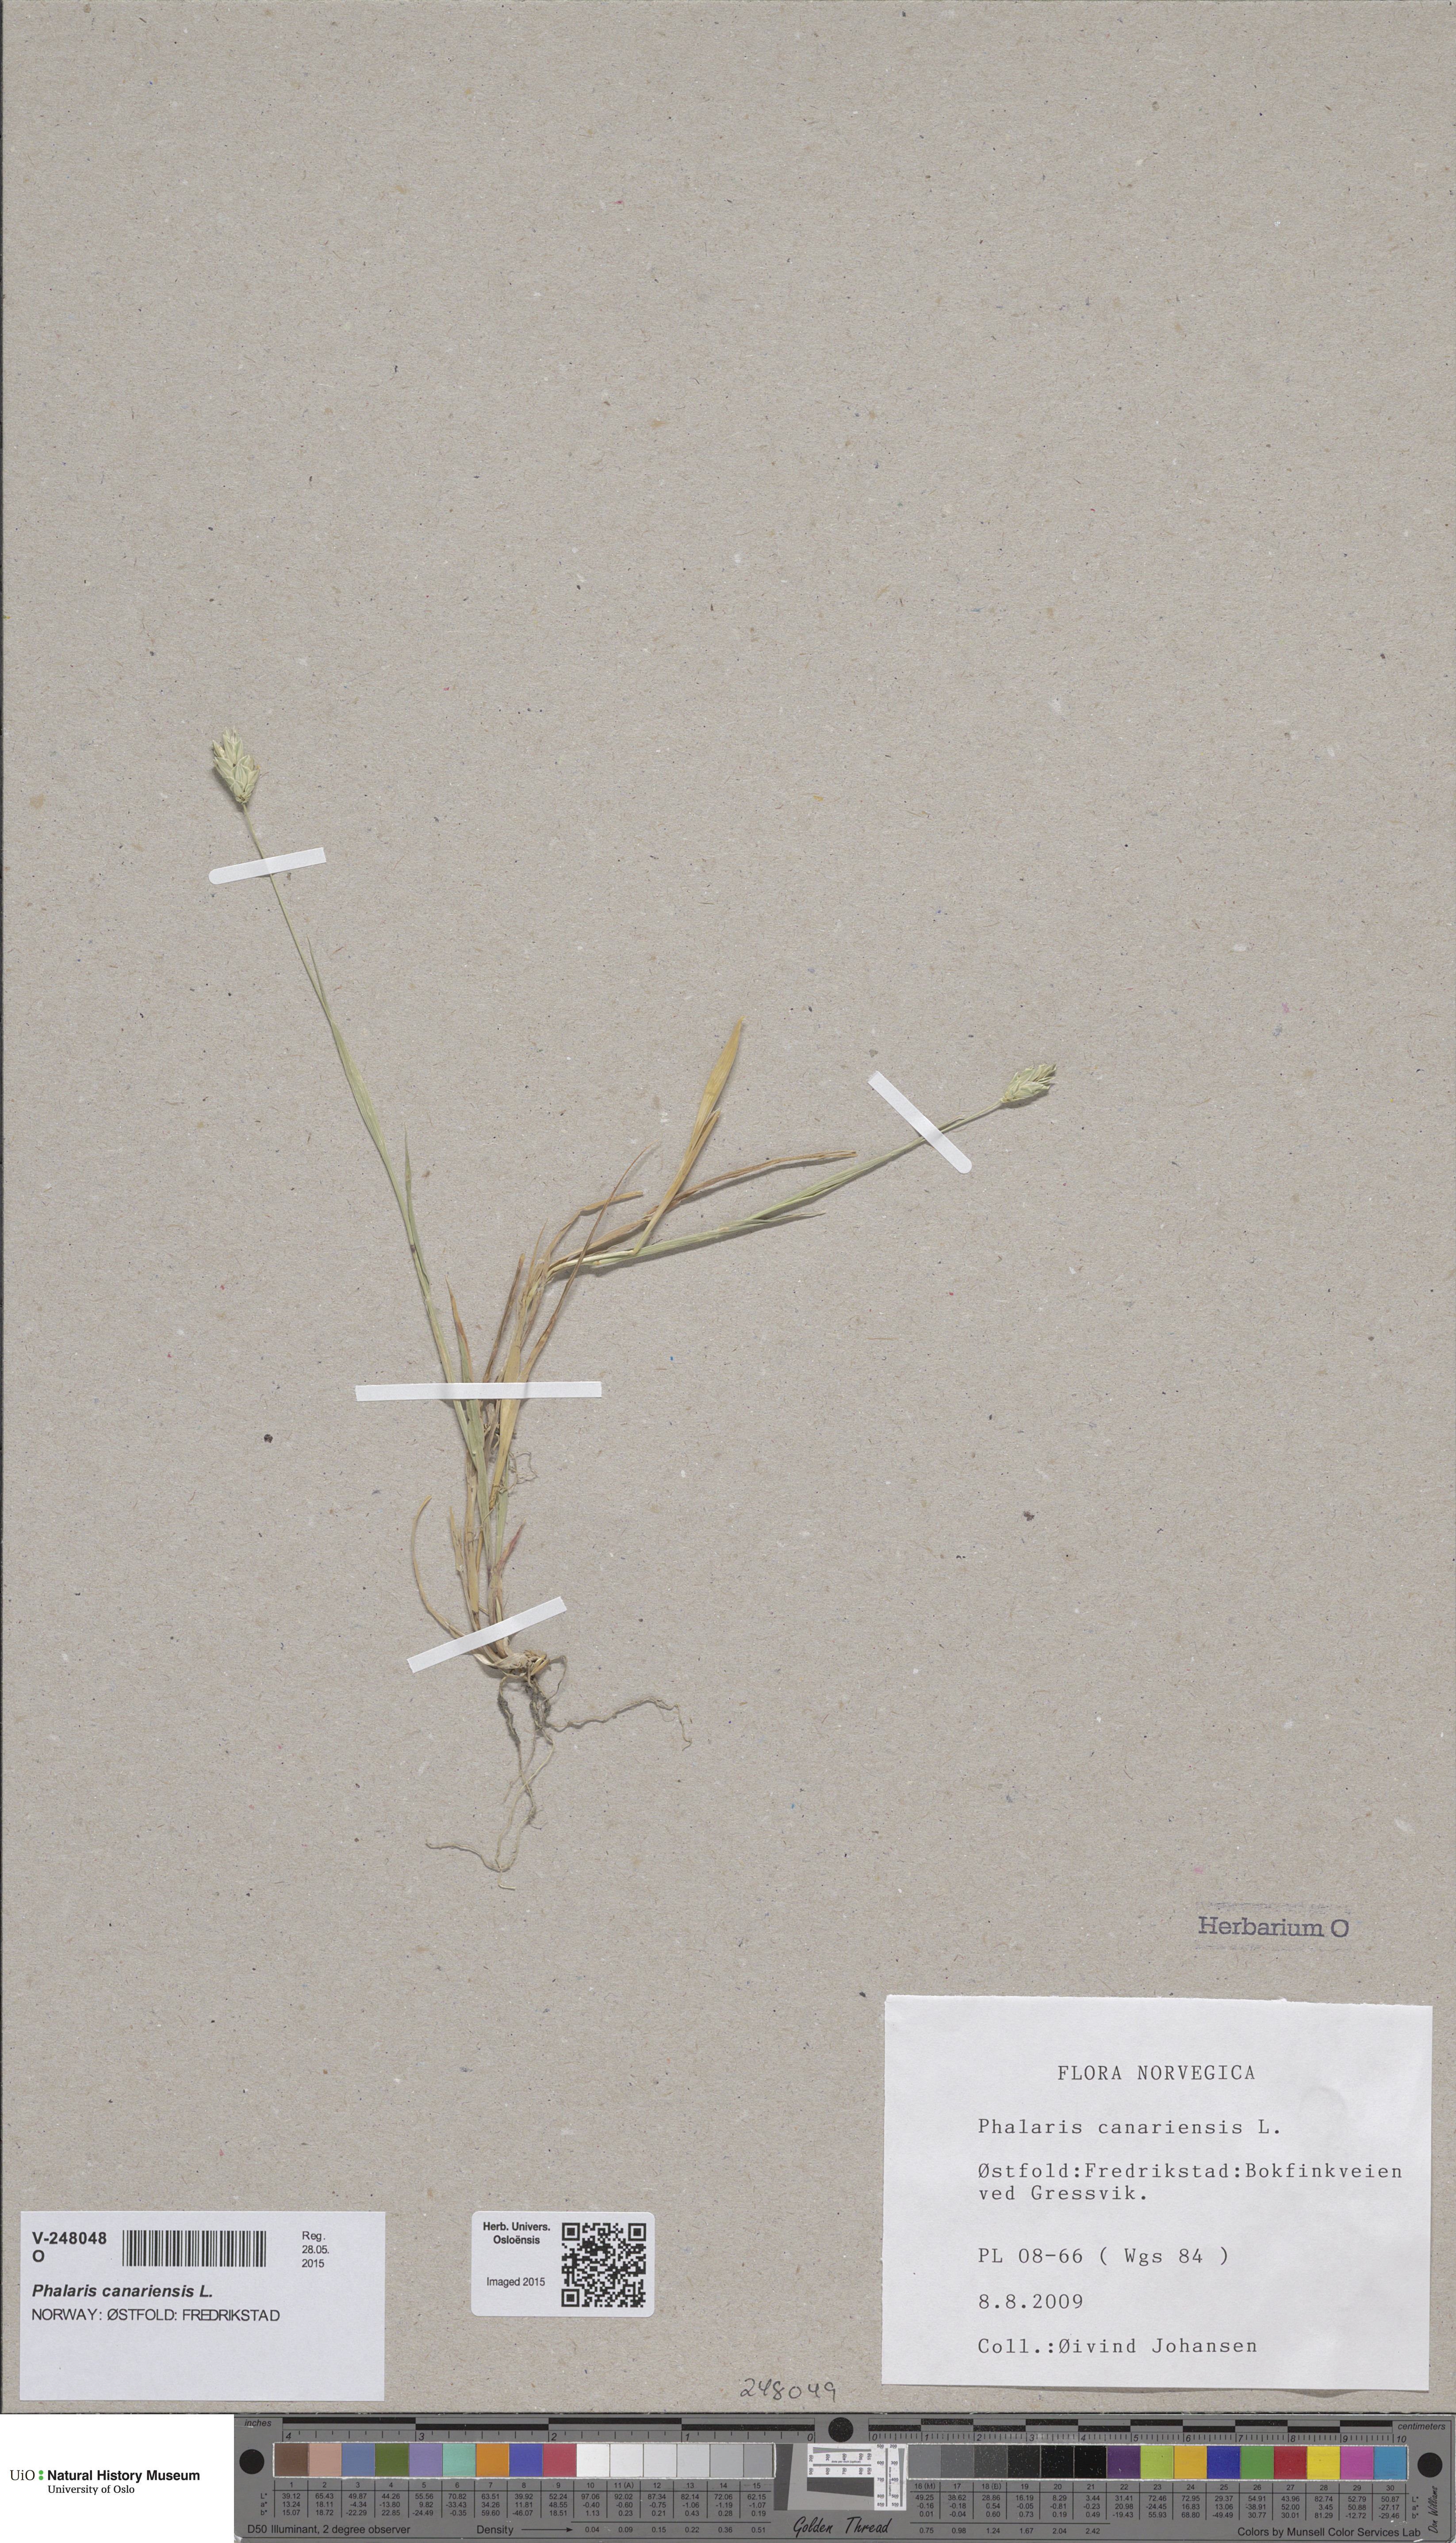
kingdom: Plantae
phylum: Tracheophyta
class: Liliopsida
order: Poales
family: Poaceae
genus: Phalaris
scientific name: Phalaris canariensis
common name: Annual canarygrass
